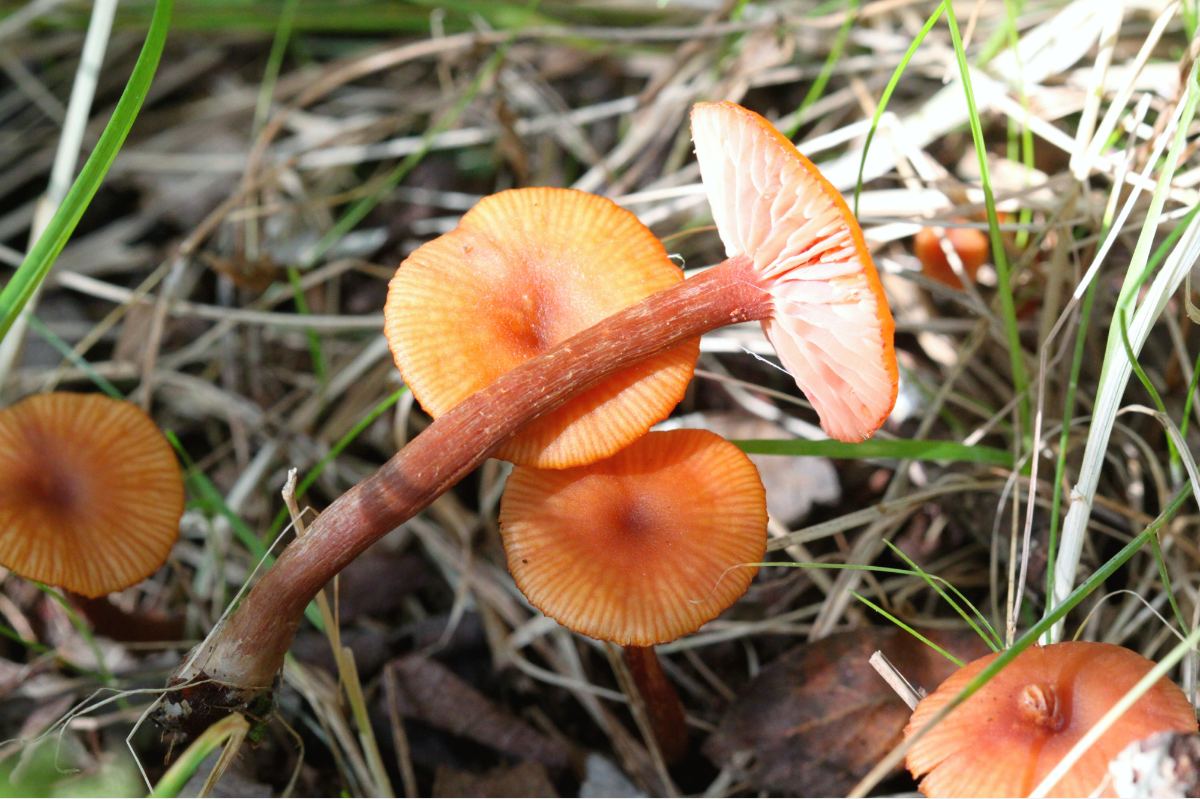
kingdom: Fungi
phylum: Basidiomycota
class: Agaricomycetes
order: Agaricales
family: Hydnangiaceae
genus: Laccaria
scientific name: Laccaria laccata
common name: rød ametysthat
